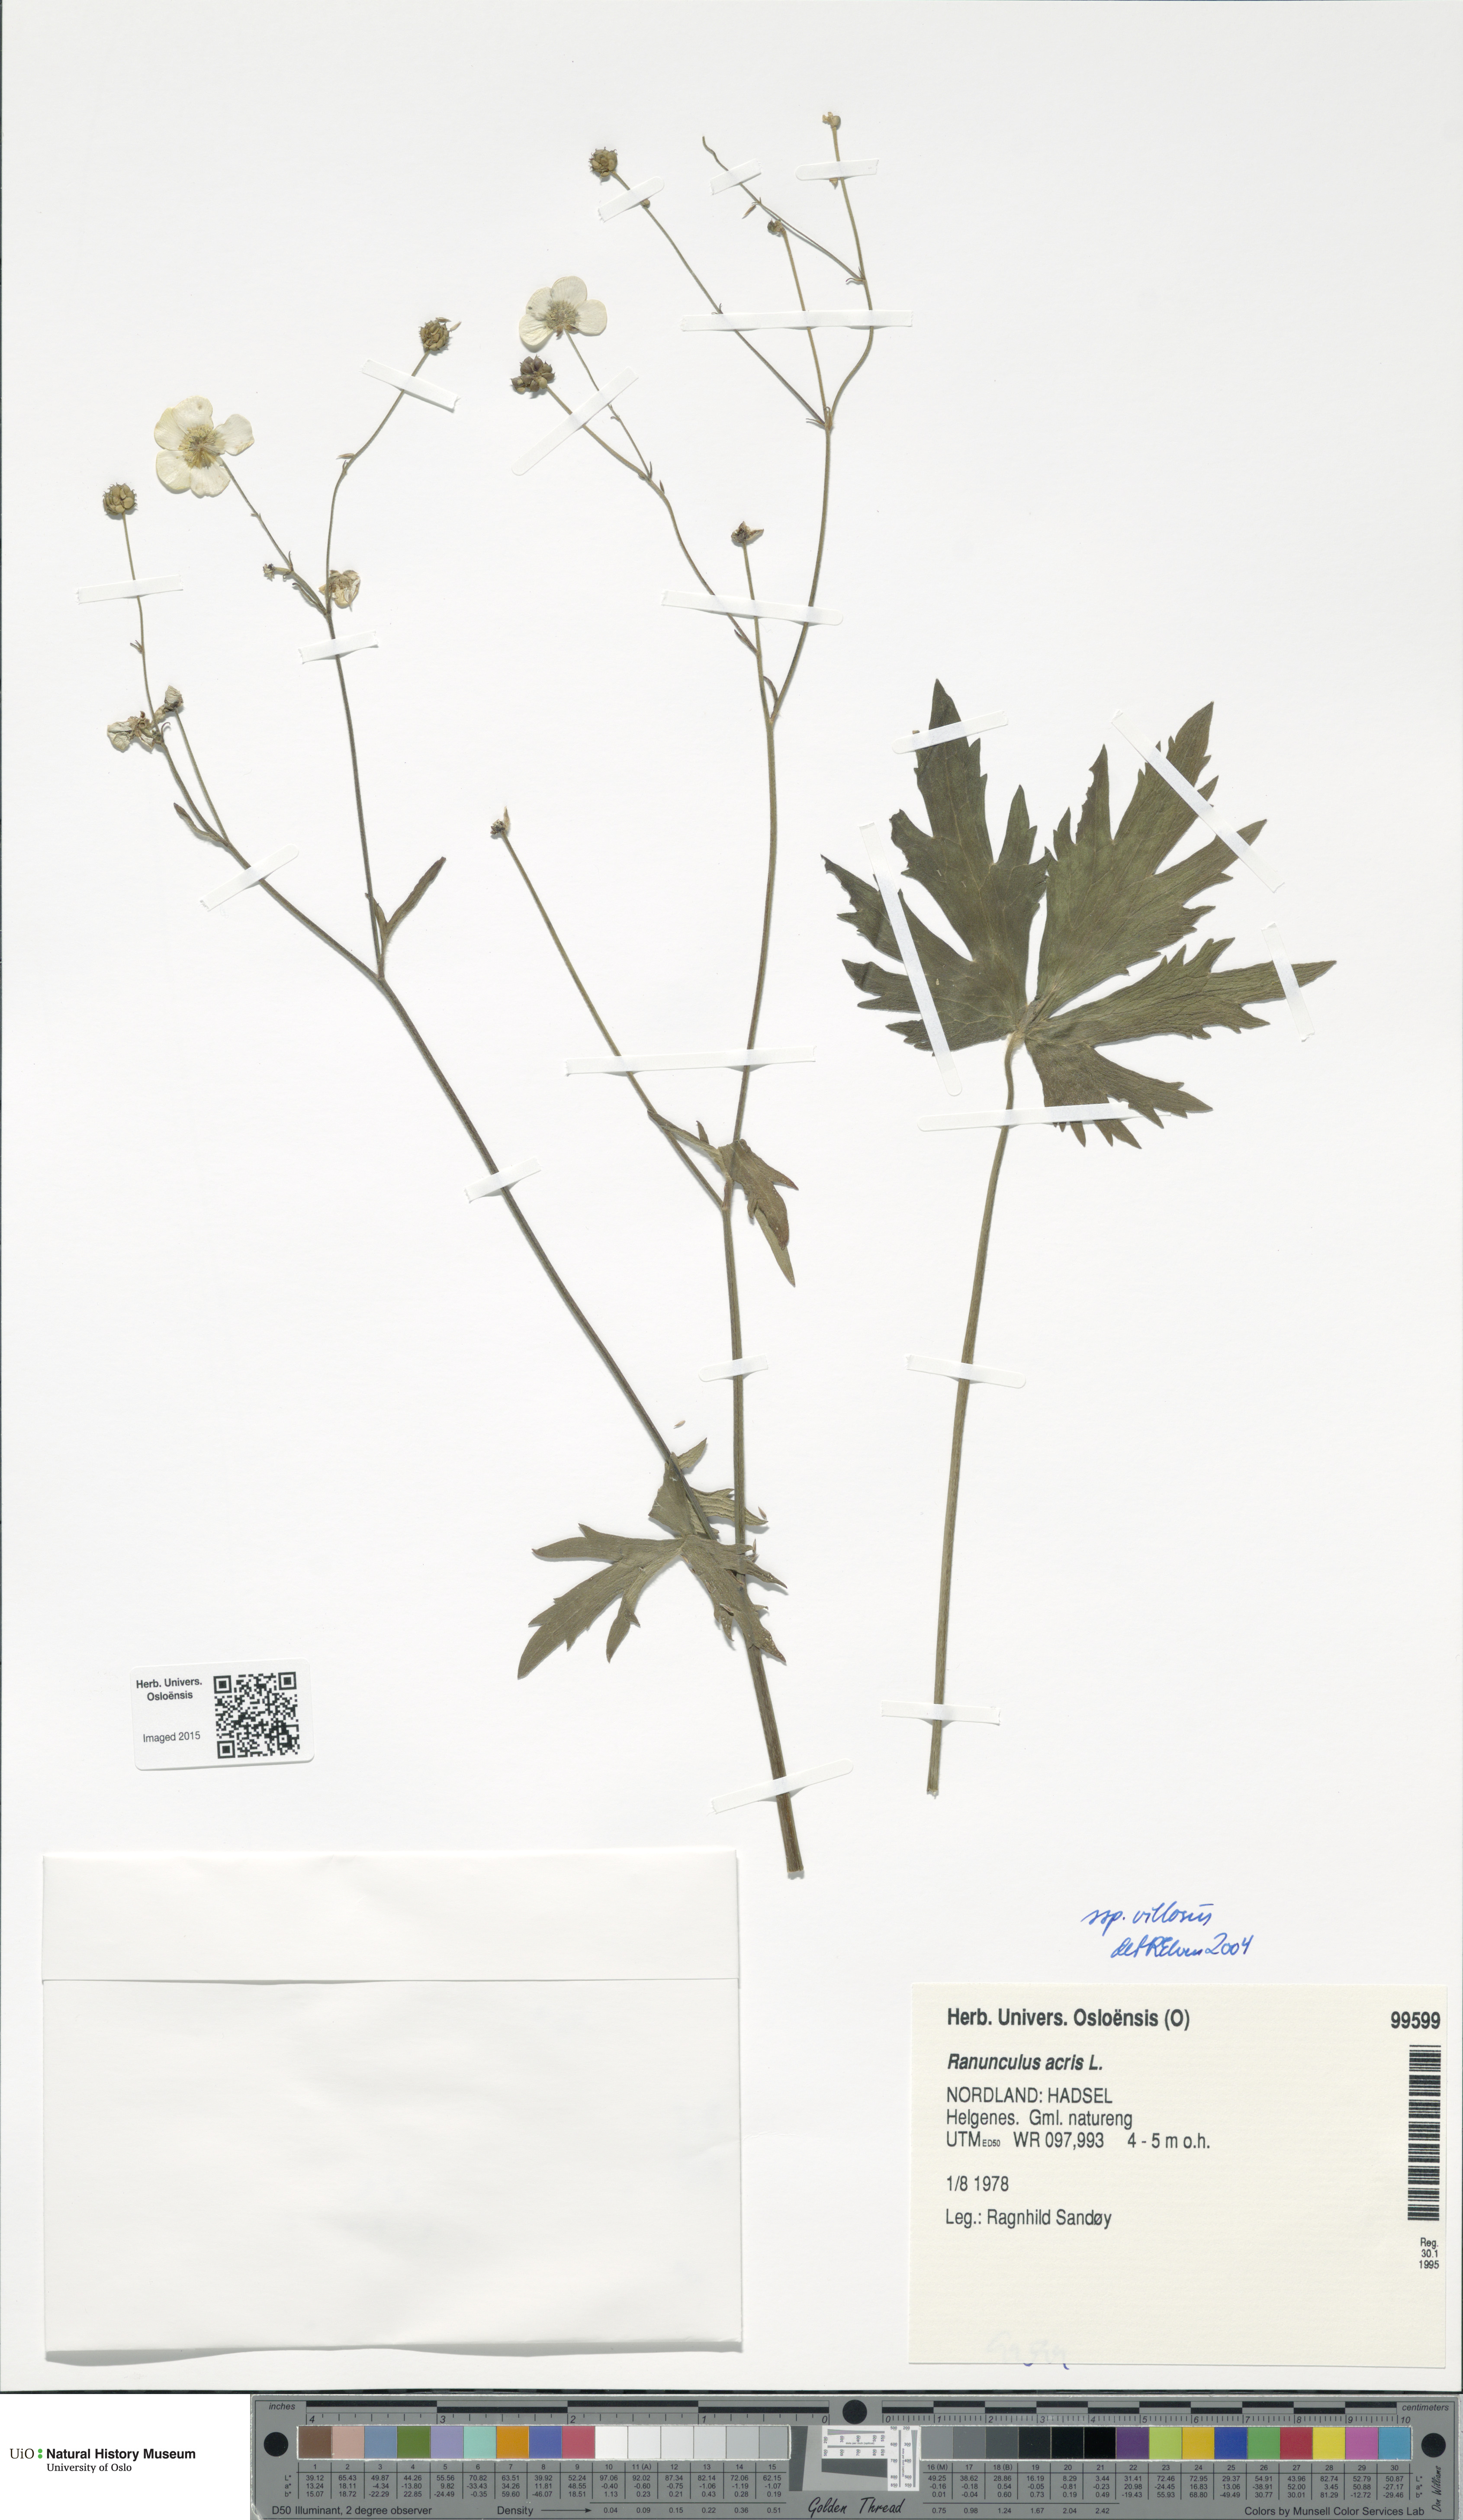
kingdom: Plantae
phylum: Tracheophyta
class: Magnoliopsida
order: Ranunculales
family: Ranunculaceae
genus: Ranunculus
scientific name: Ranunculus acris
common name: Meadow buttercup
